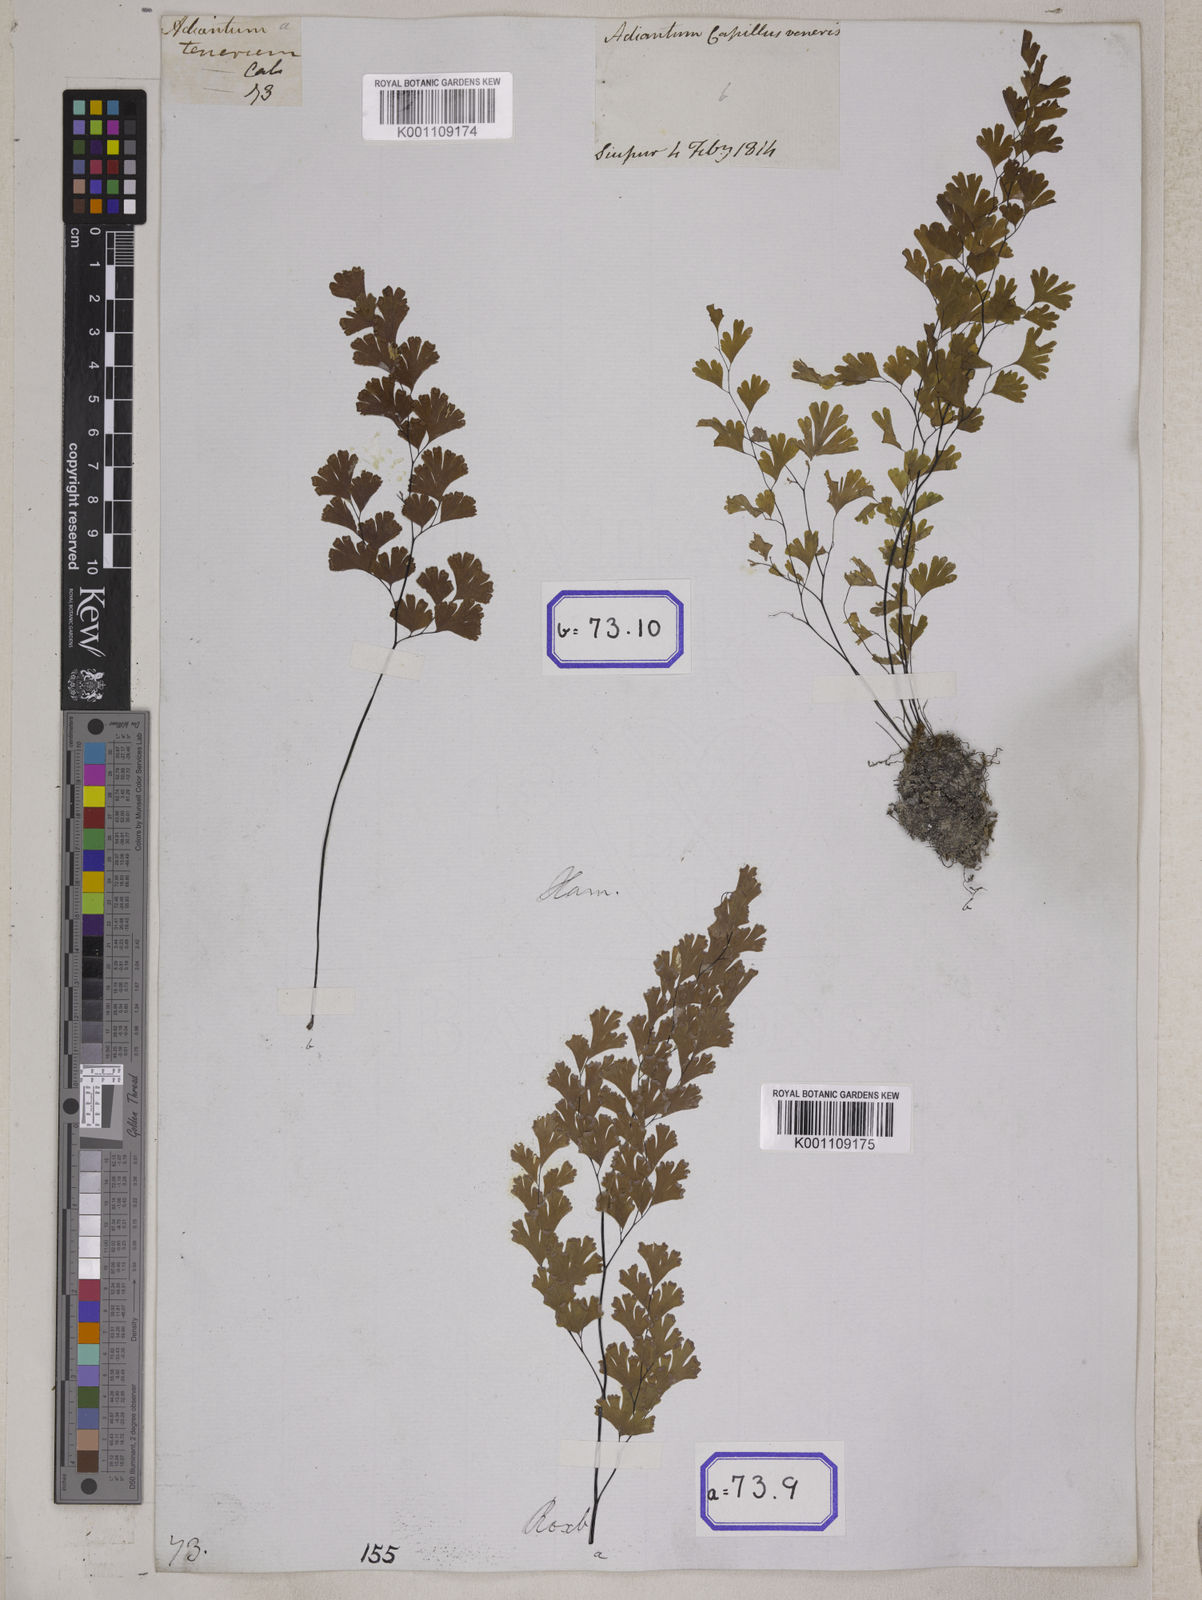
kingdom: Plantae
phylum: Tracheophyta
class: Polypodiopsida
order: Polypodiales
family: Pteridaceae
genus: Adiantum
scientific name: Adiantum
